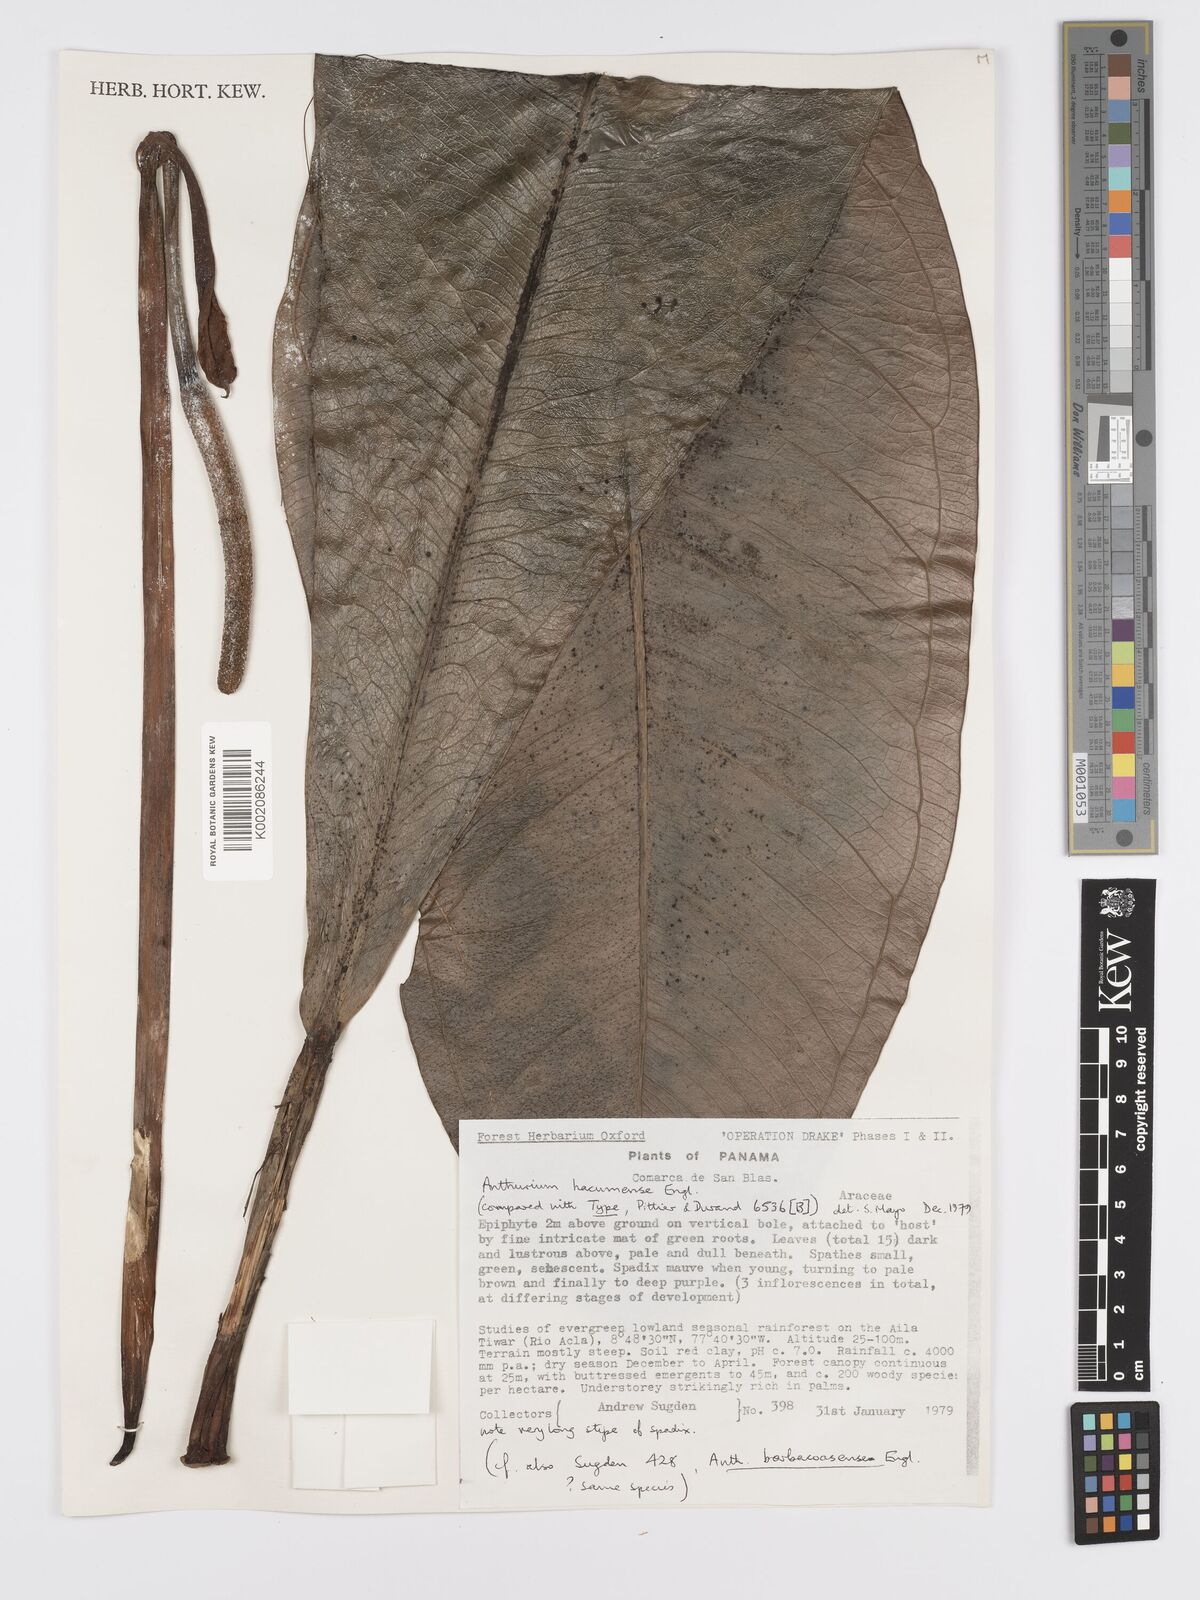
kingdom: Plantae
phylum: Tracheophyta
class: Liliopsida
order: Alismatales
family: Araceae
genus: Anthurium
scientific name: Anthurium hacumense
